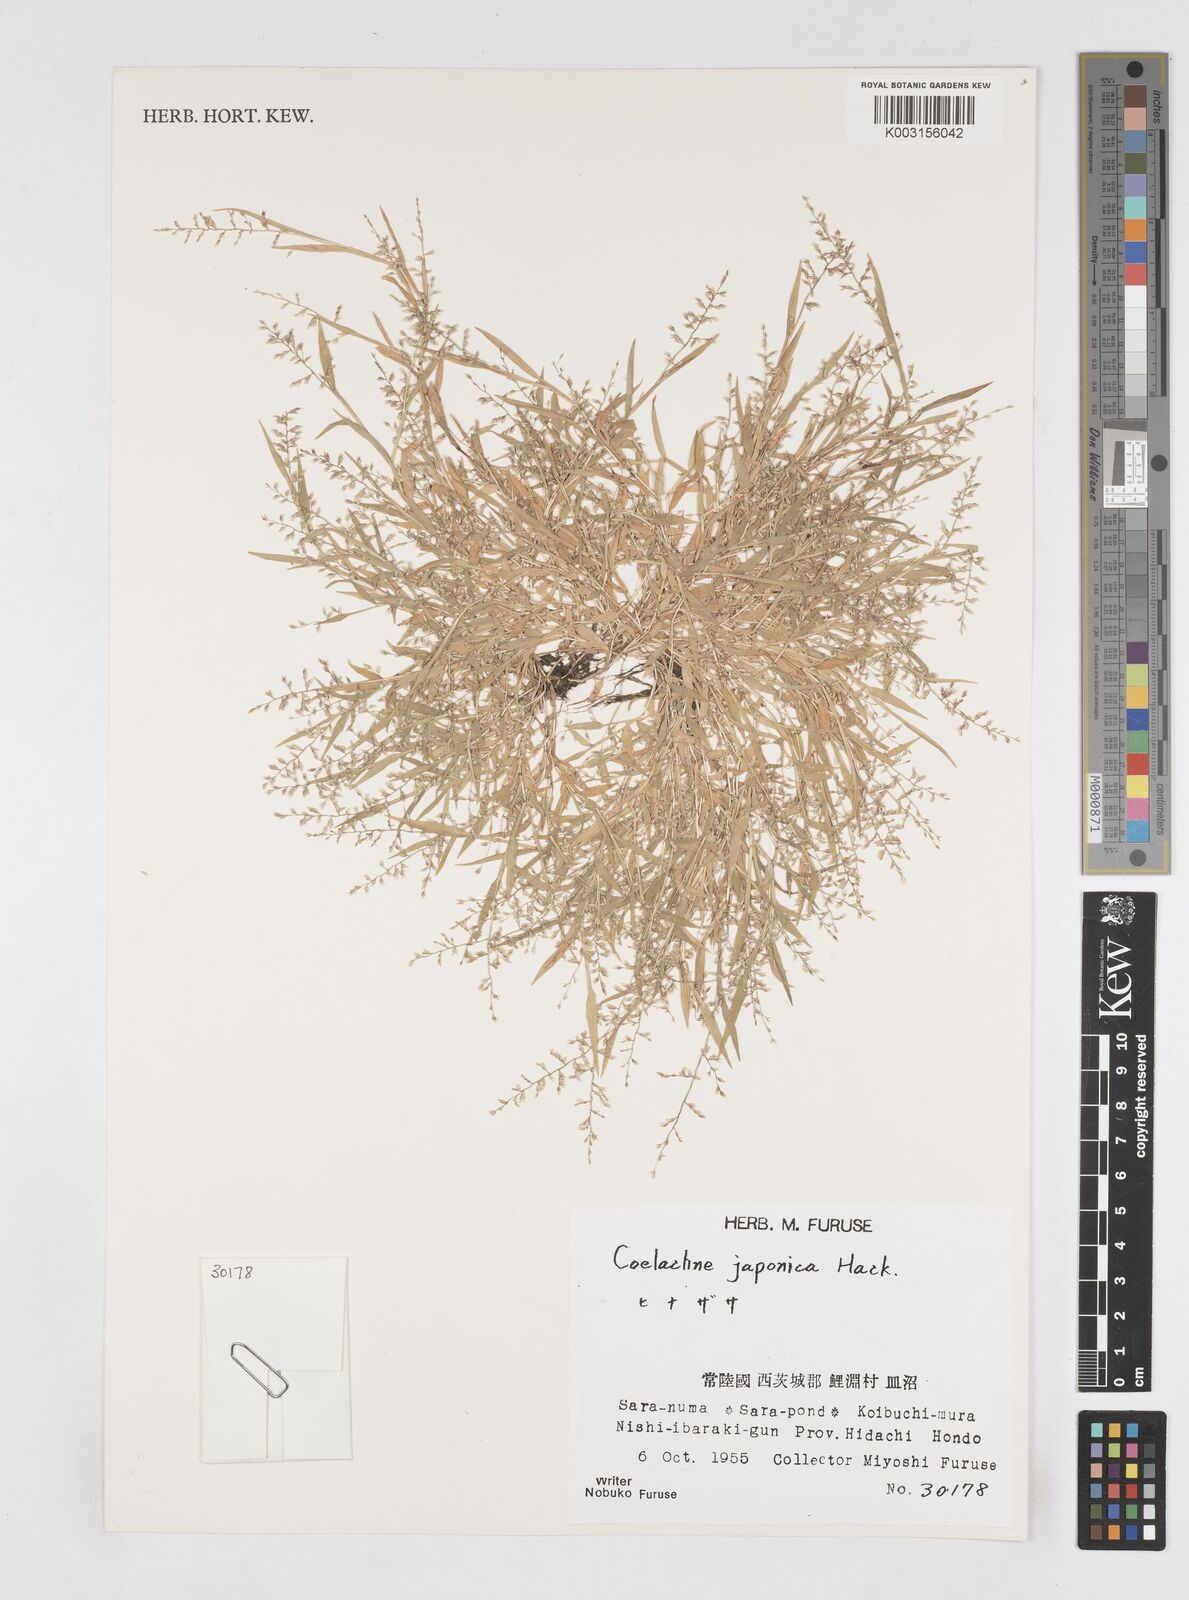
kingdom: Plantae
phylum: Tracheophyta
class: Liliopsida
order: Poales
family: Poaceae
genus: Coelachne
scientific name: Coelachne japonica
